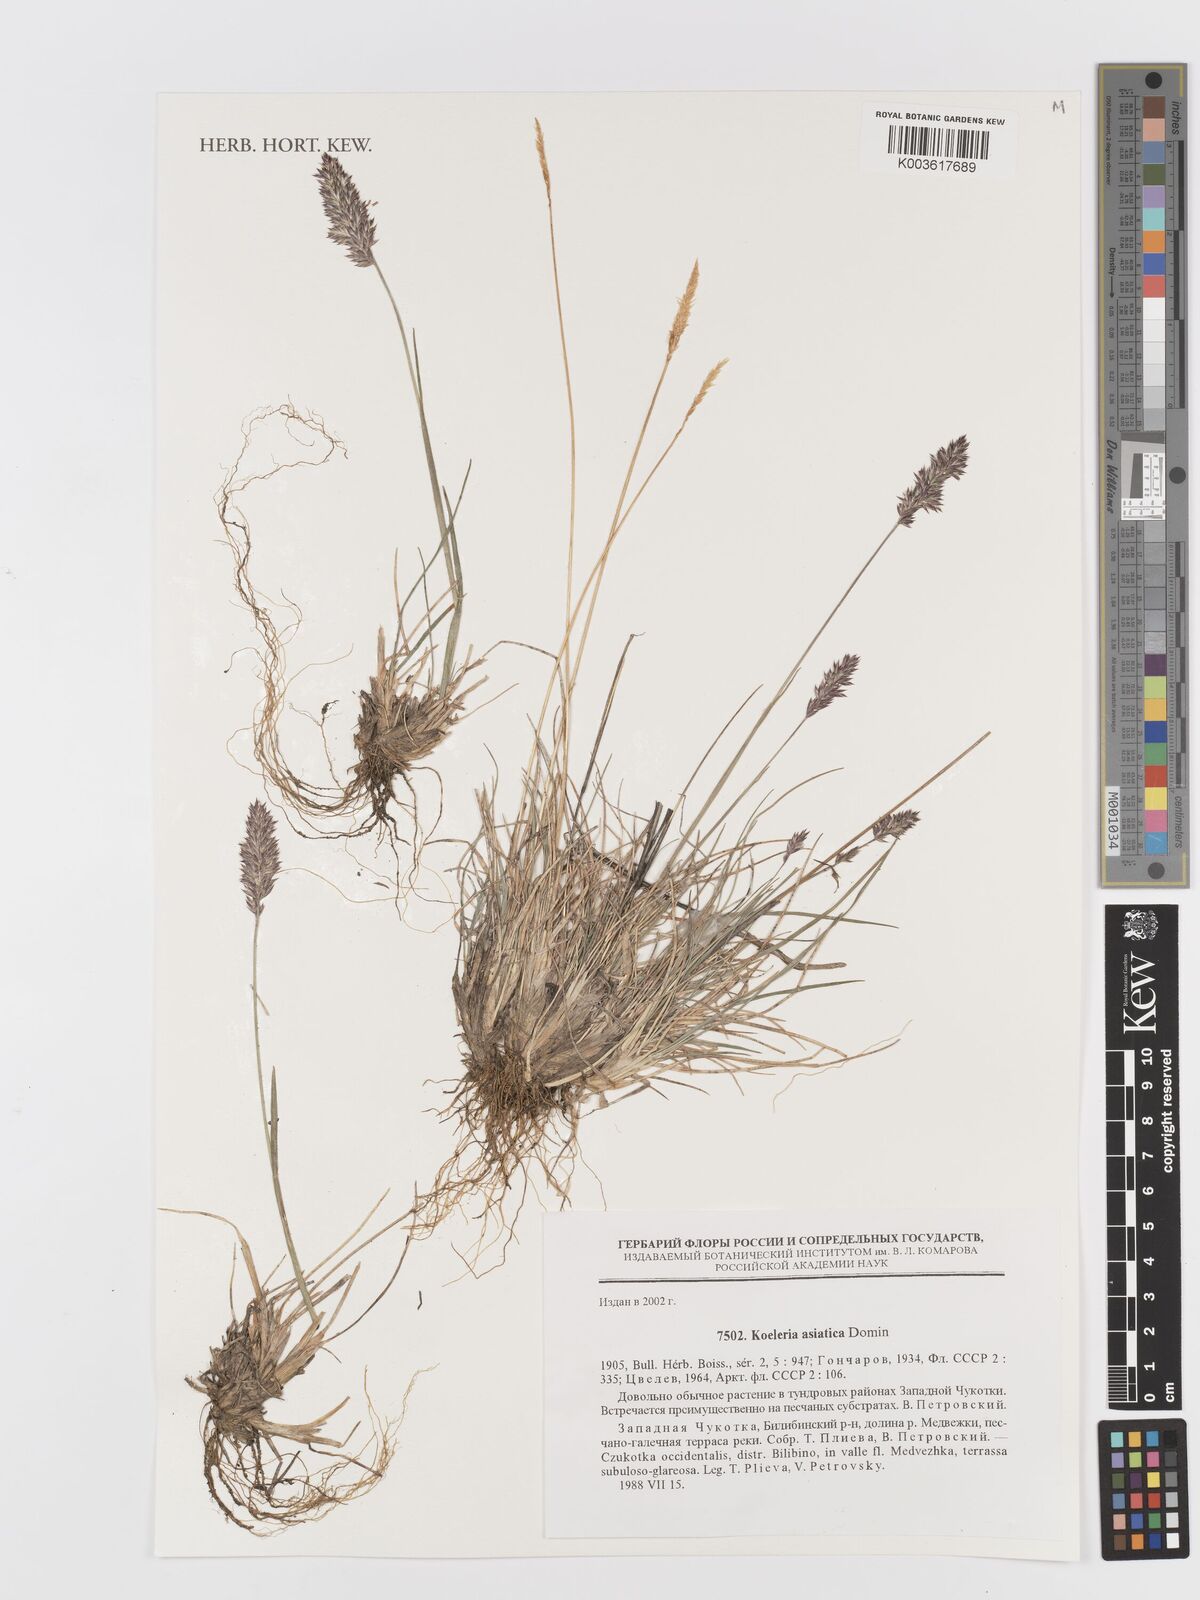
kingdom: Plantae
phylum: Tracheophyta
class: Liliopsida
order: Poales
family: Poaceae
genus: Koeleria
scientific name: Koeleria asiatica
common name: Eurasian junegrass
